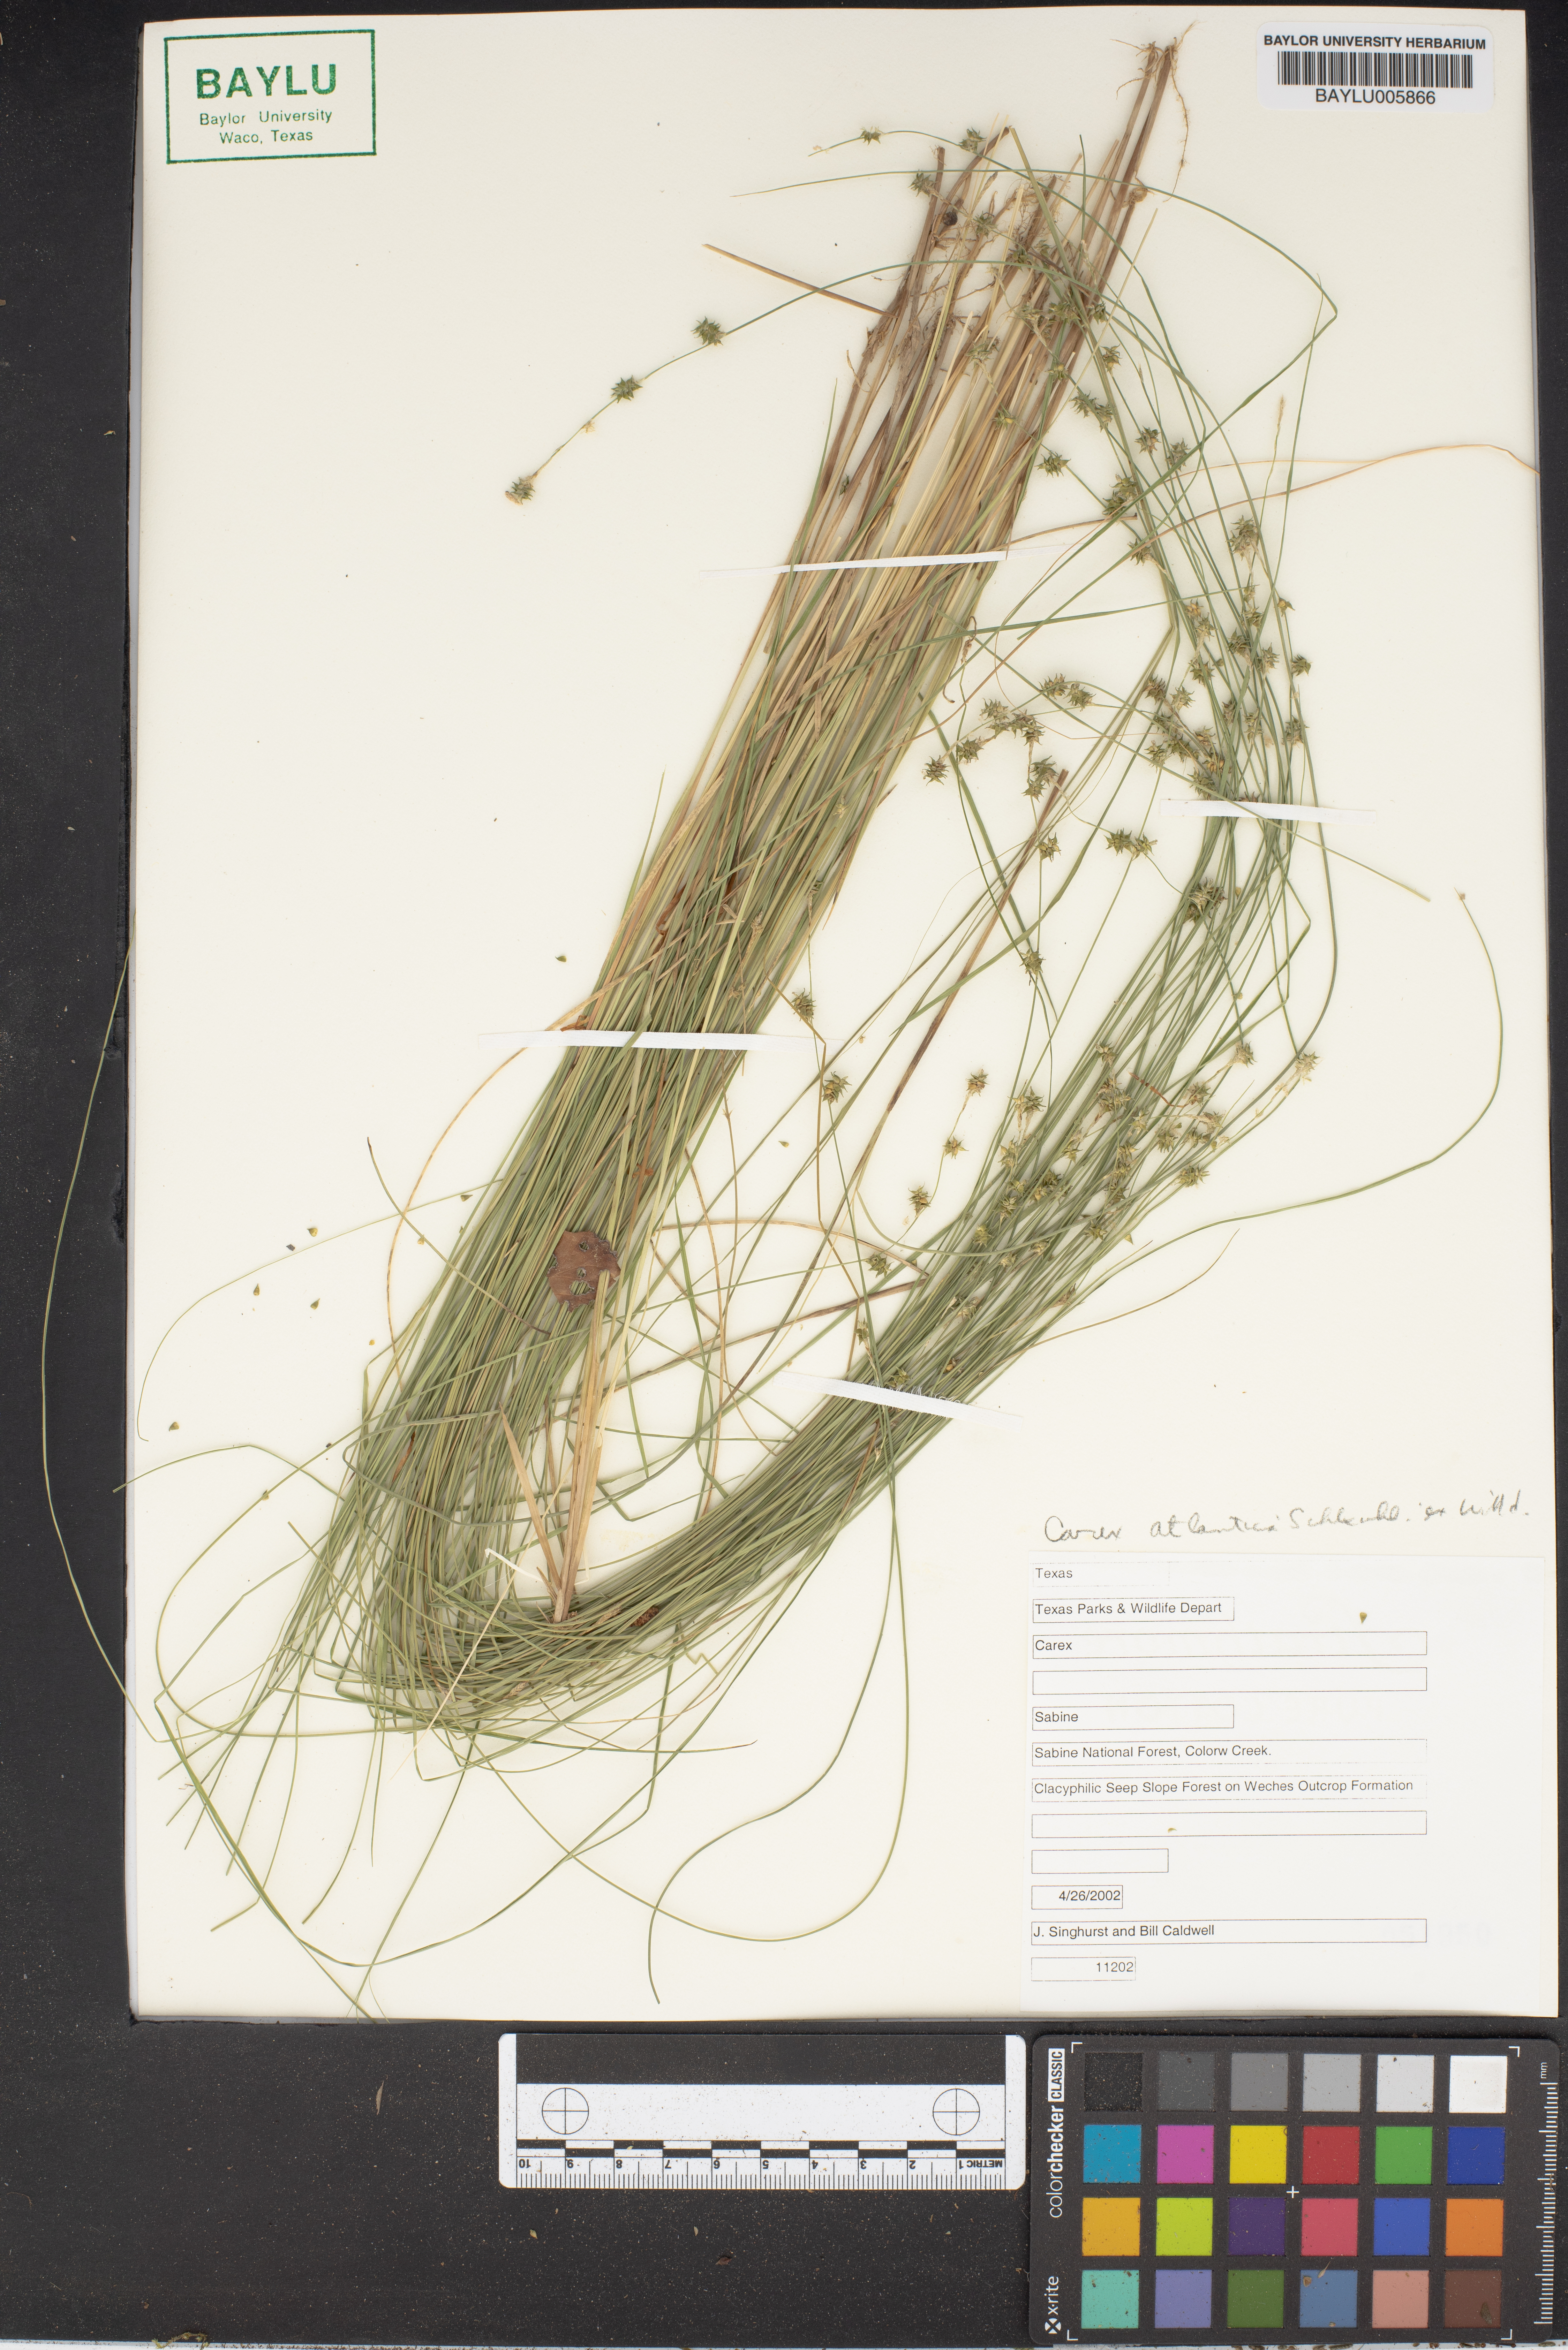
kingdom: Plantae
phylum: Tracheophyta
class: Liliopsida
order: Poales
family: Cyperaceae
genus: Carex
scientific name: Carex atlantica
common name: Atlantic sedge
